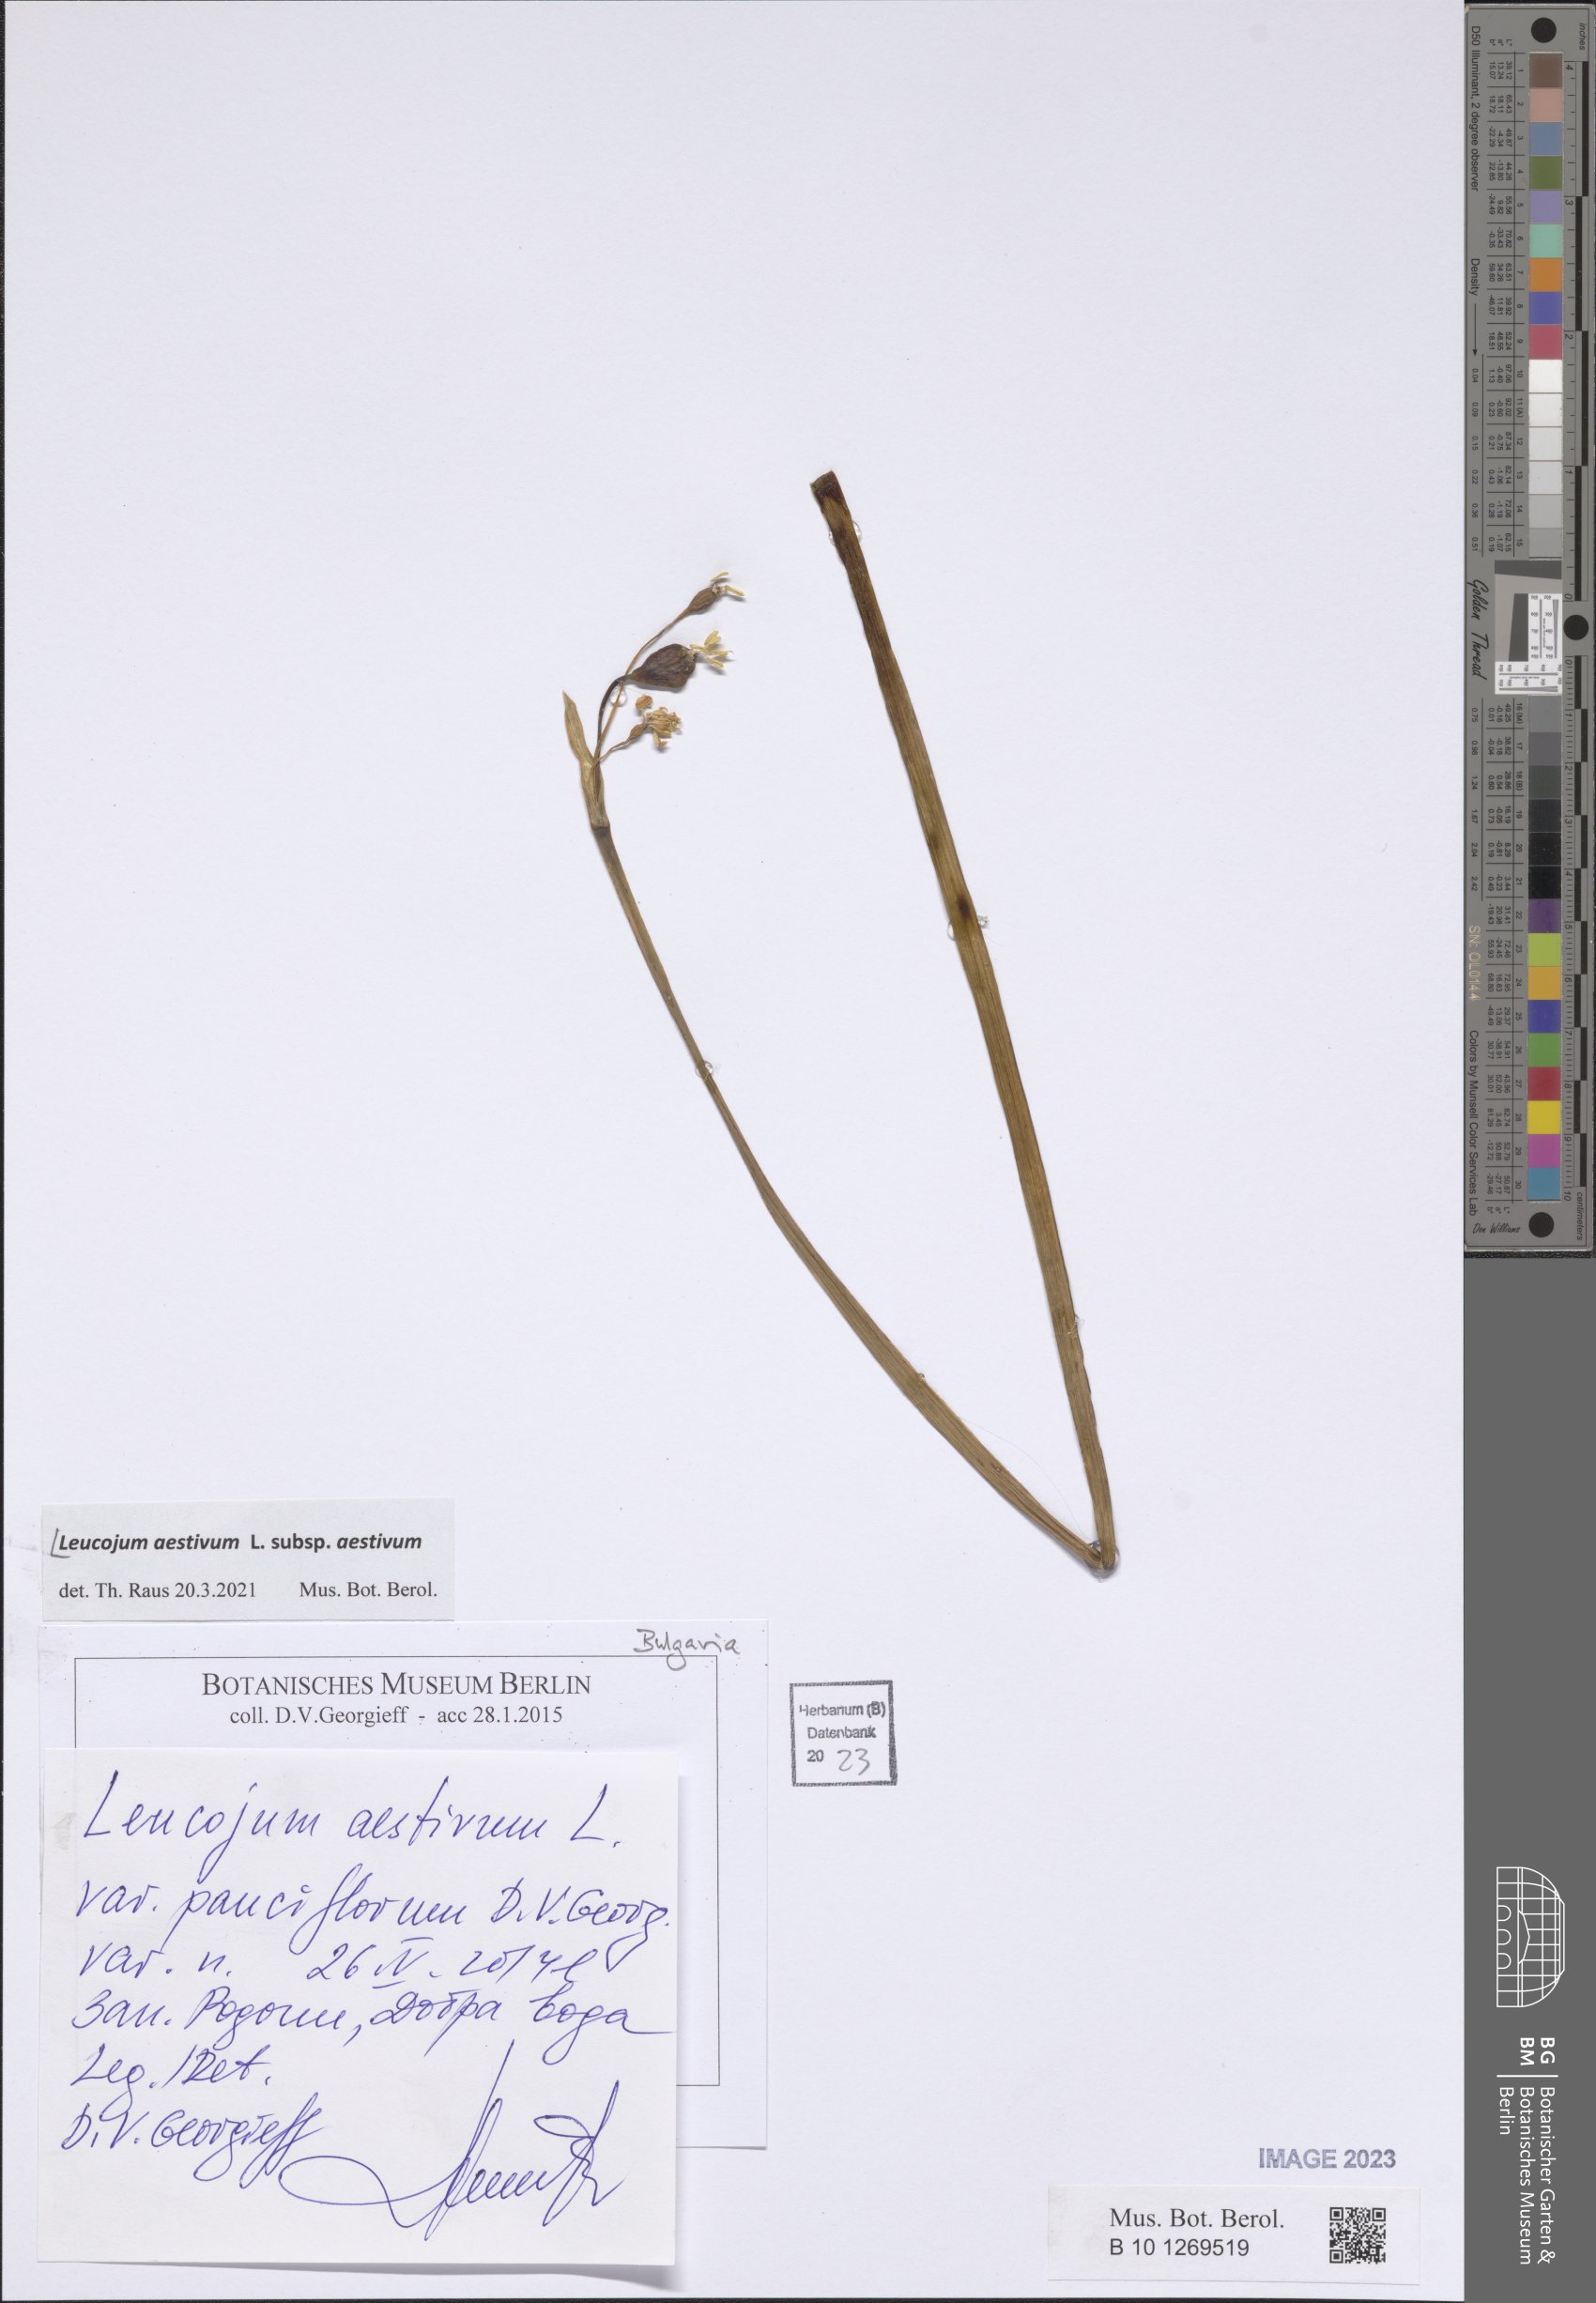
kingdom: Plantae
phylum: Tracheophyta
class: Liliopsida
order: Asparagales
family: Amaryllidaceae
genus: Leucojum
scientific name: Leucojum aestivum
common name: Summer snowflake
